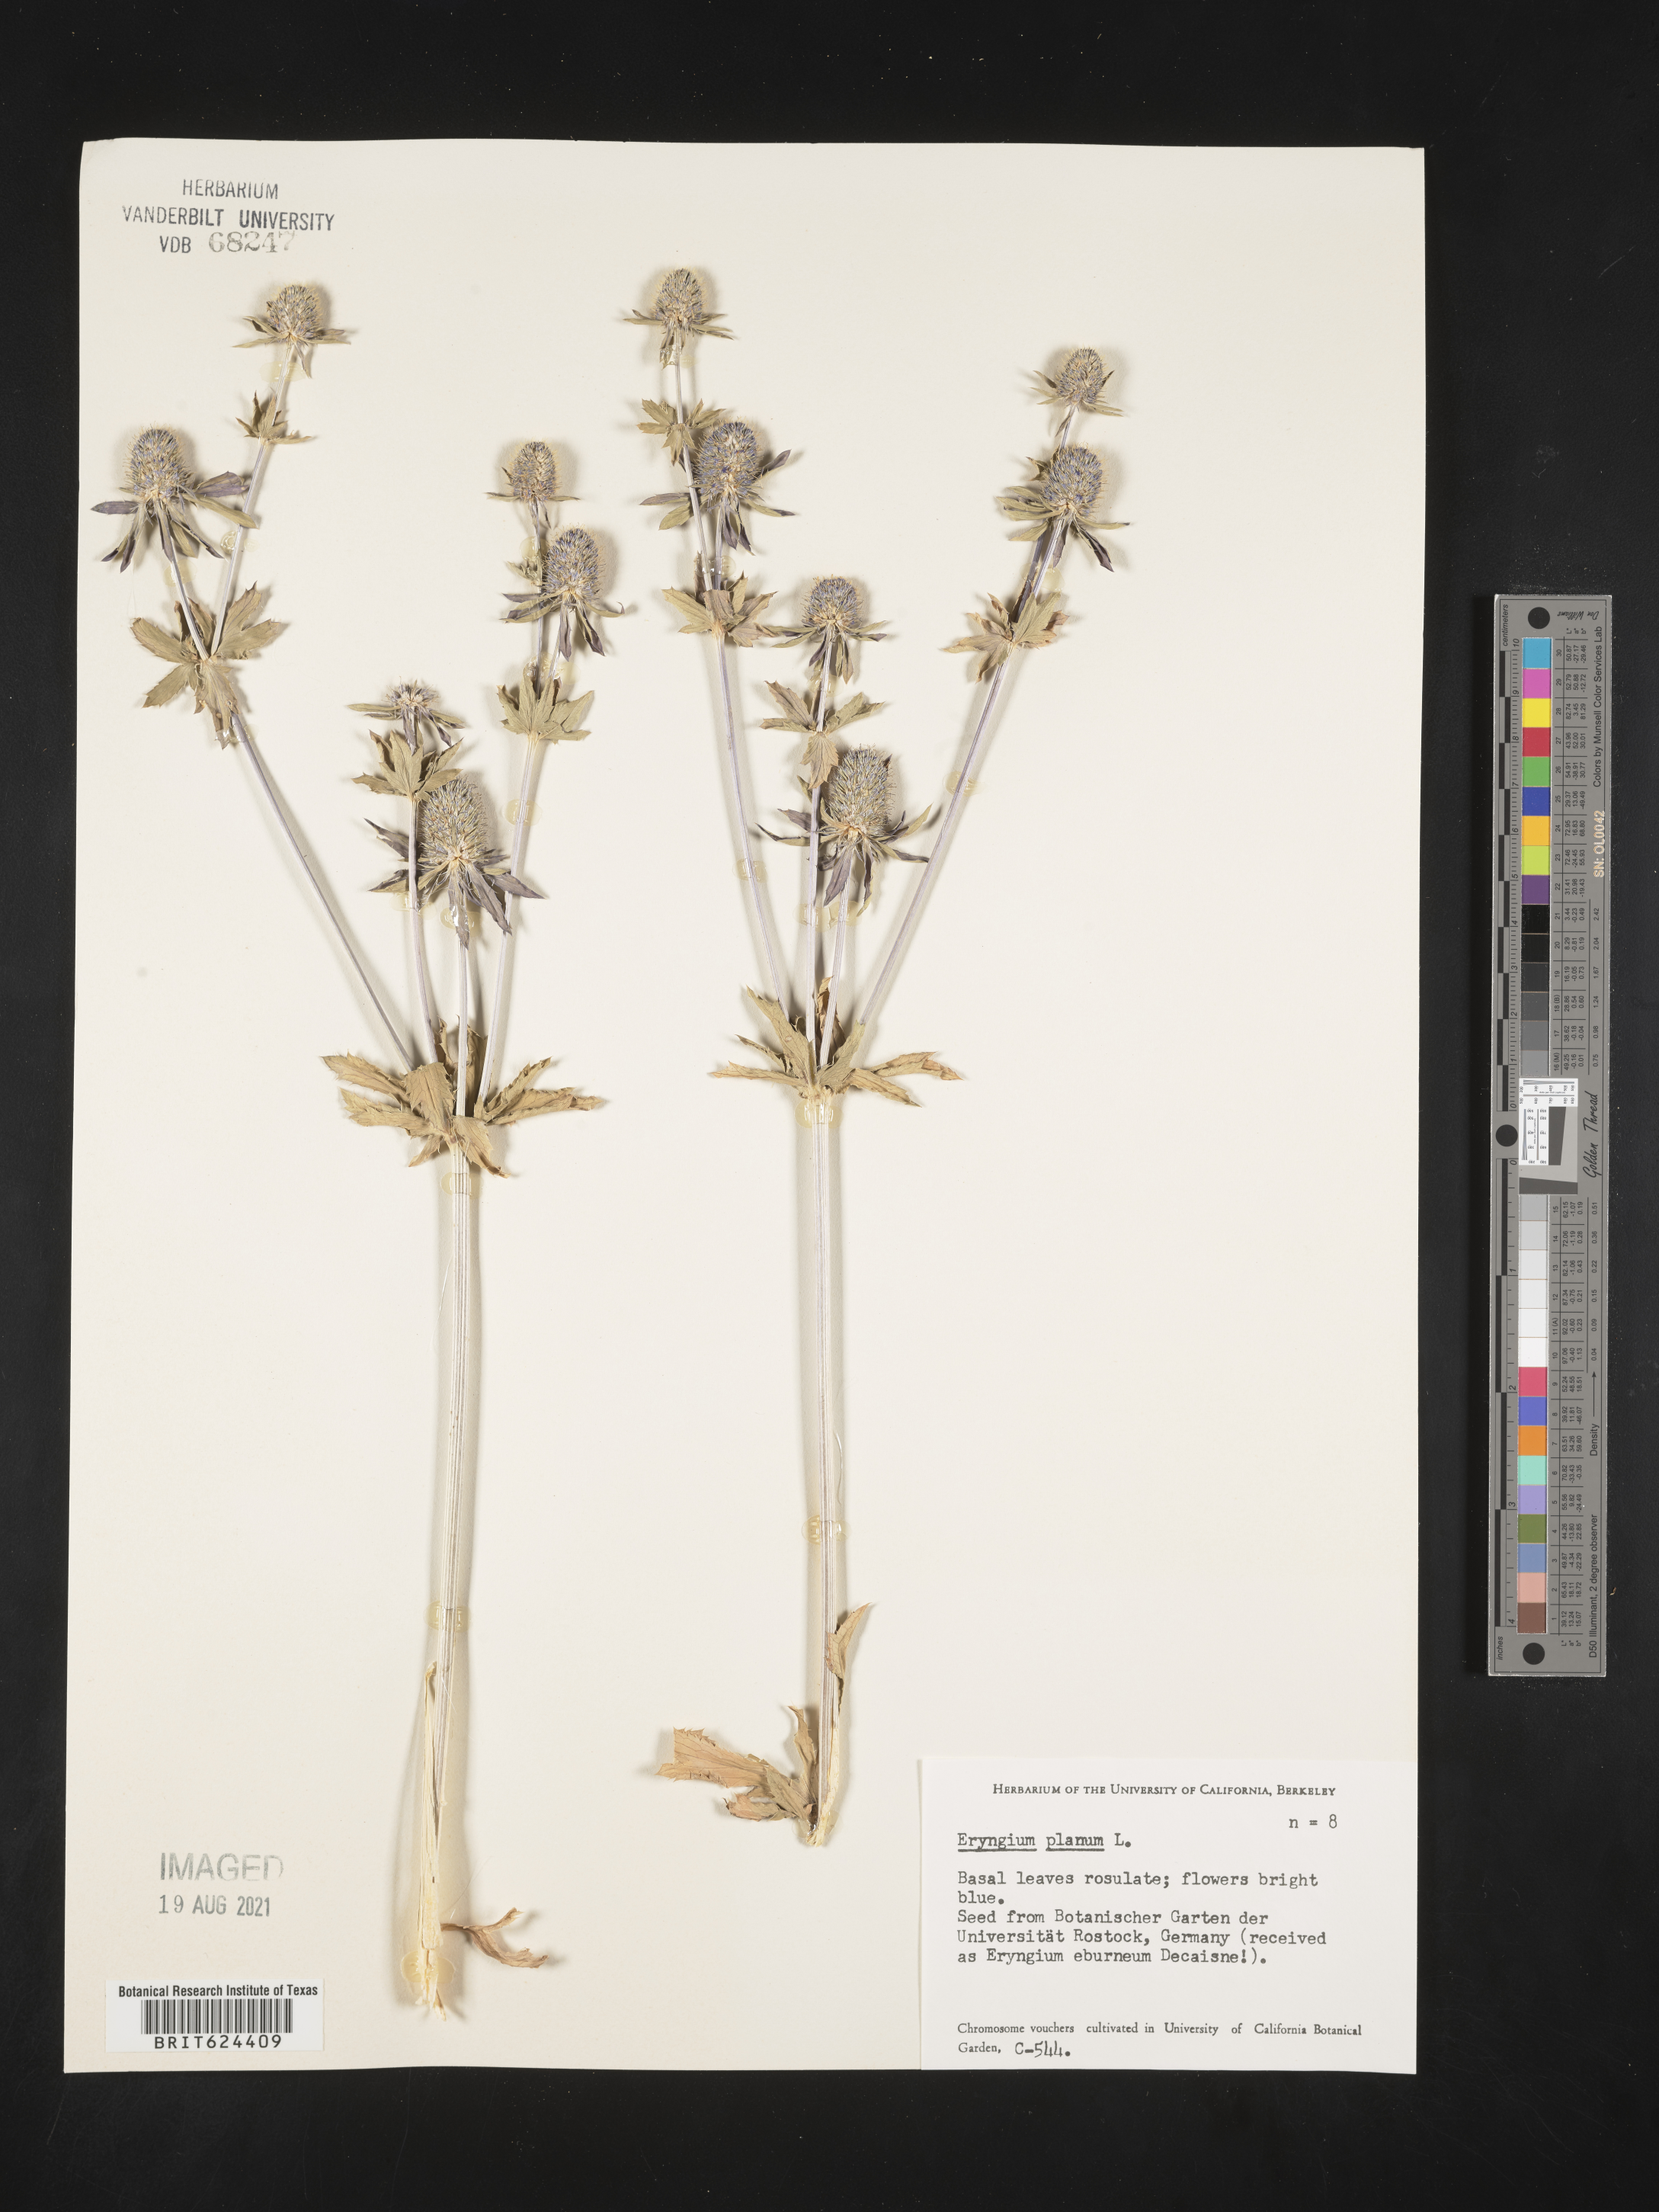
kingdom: Plantae
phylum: Tracheophyta
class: Magnoliopsida
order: Apiales
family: Apiaceae
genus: Eryngium
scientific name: Eryngium planum
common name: Blue eryngo
